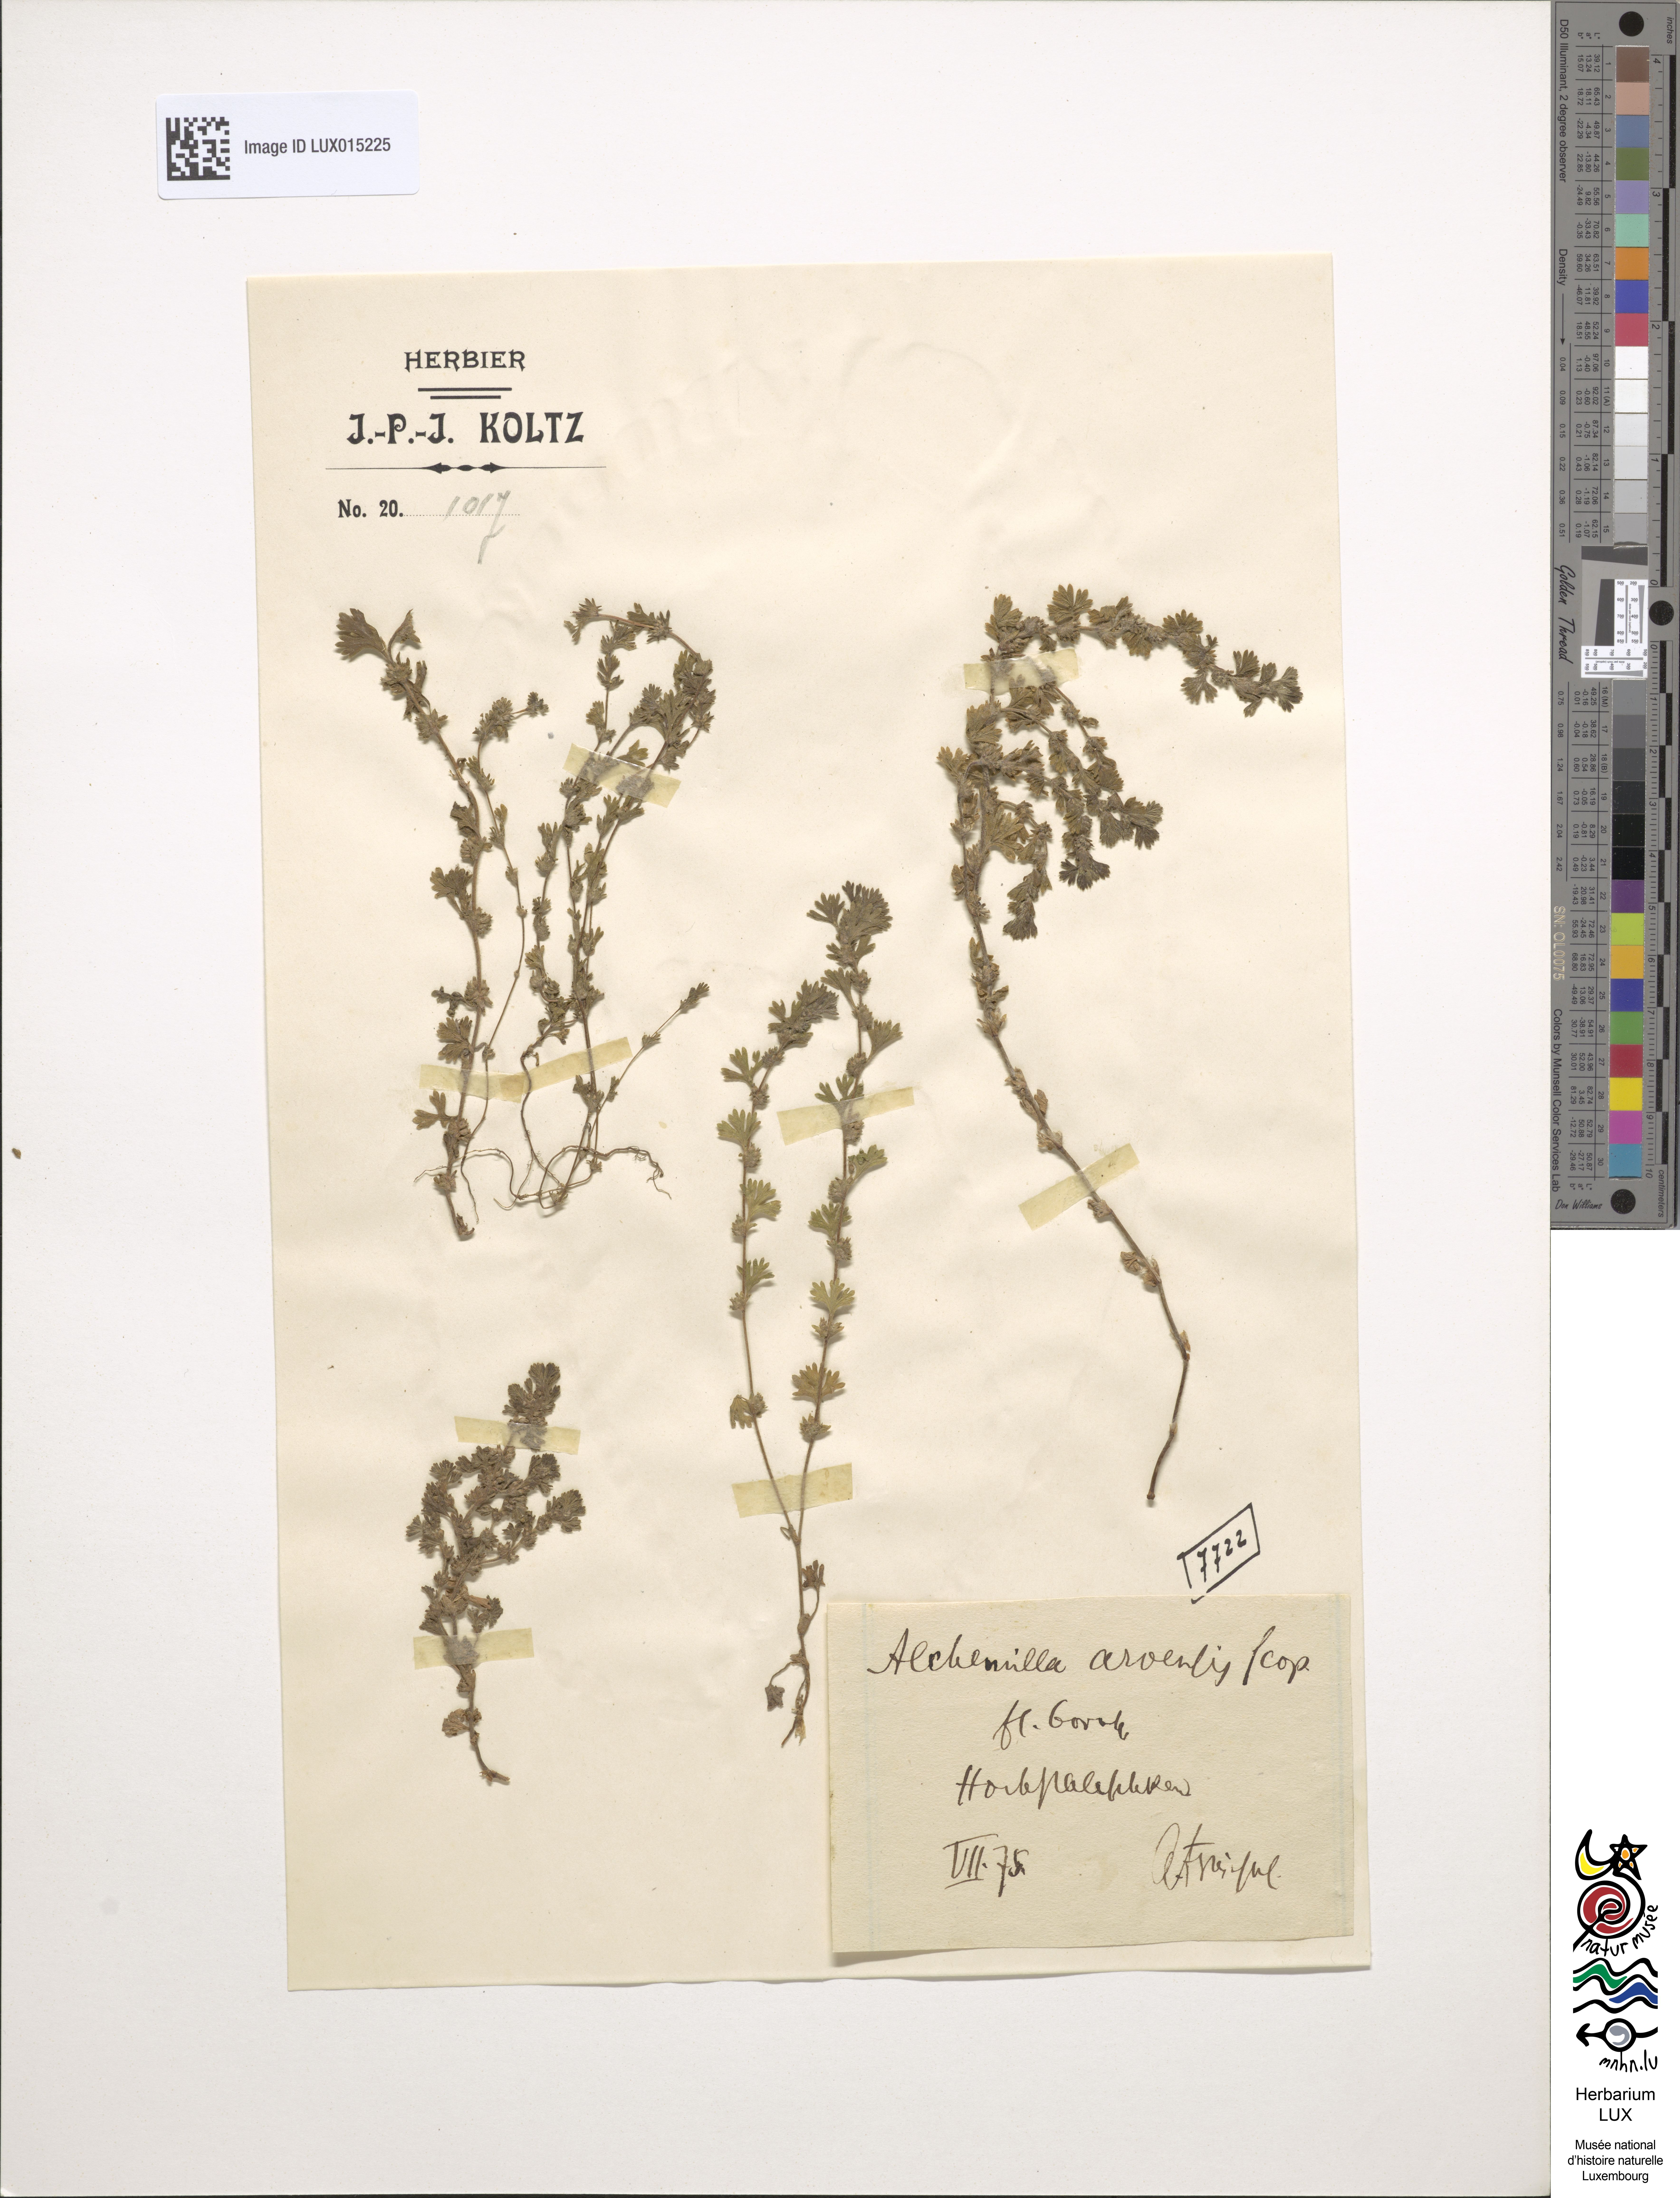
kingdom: Plantae
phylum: Tracheophyta
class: Magnoliopsida
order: Rosales
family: Rosaceae
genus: Aphanes
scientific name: Aphanes arvensis
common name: Parsley-piert
